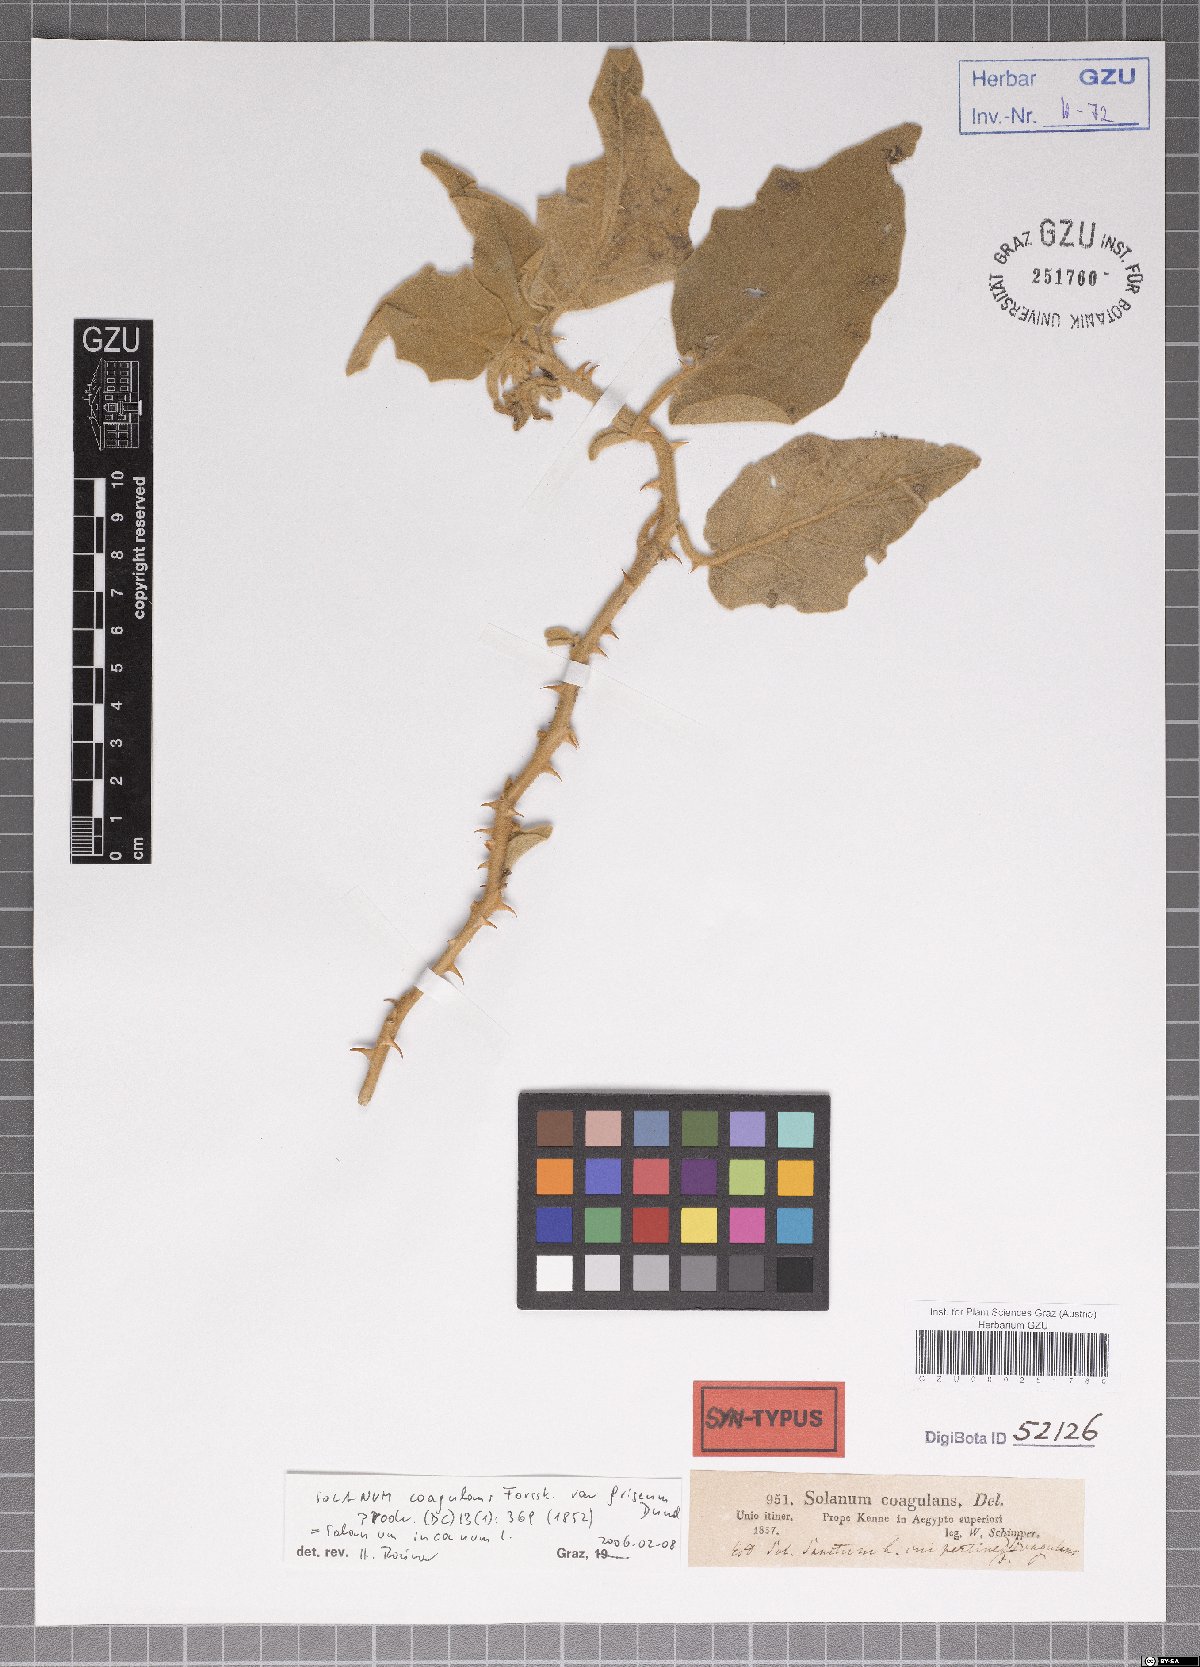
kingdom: Plantae
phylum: Tracheophyta
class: Magnoliopsida
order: Solanales
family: Solanaceae
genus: Solanum
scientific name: Solanum incanum
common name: Bitter apple
